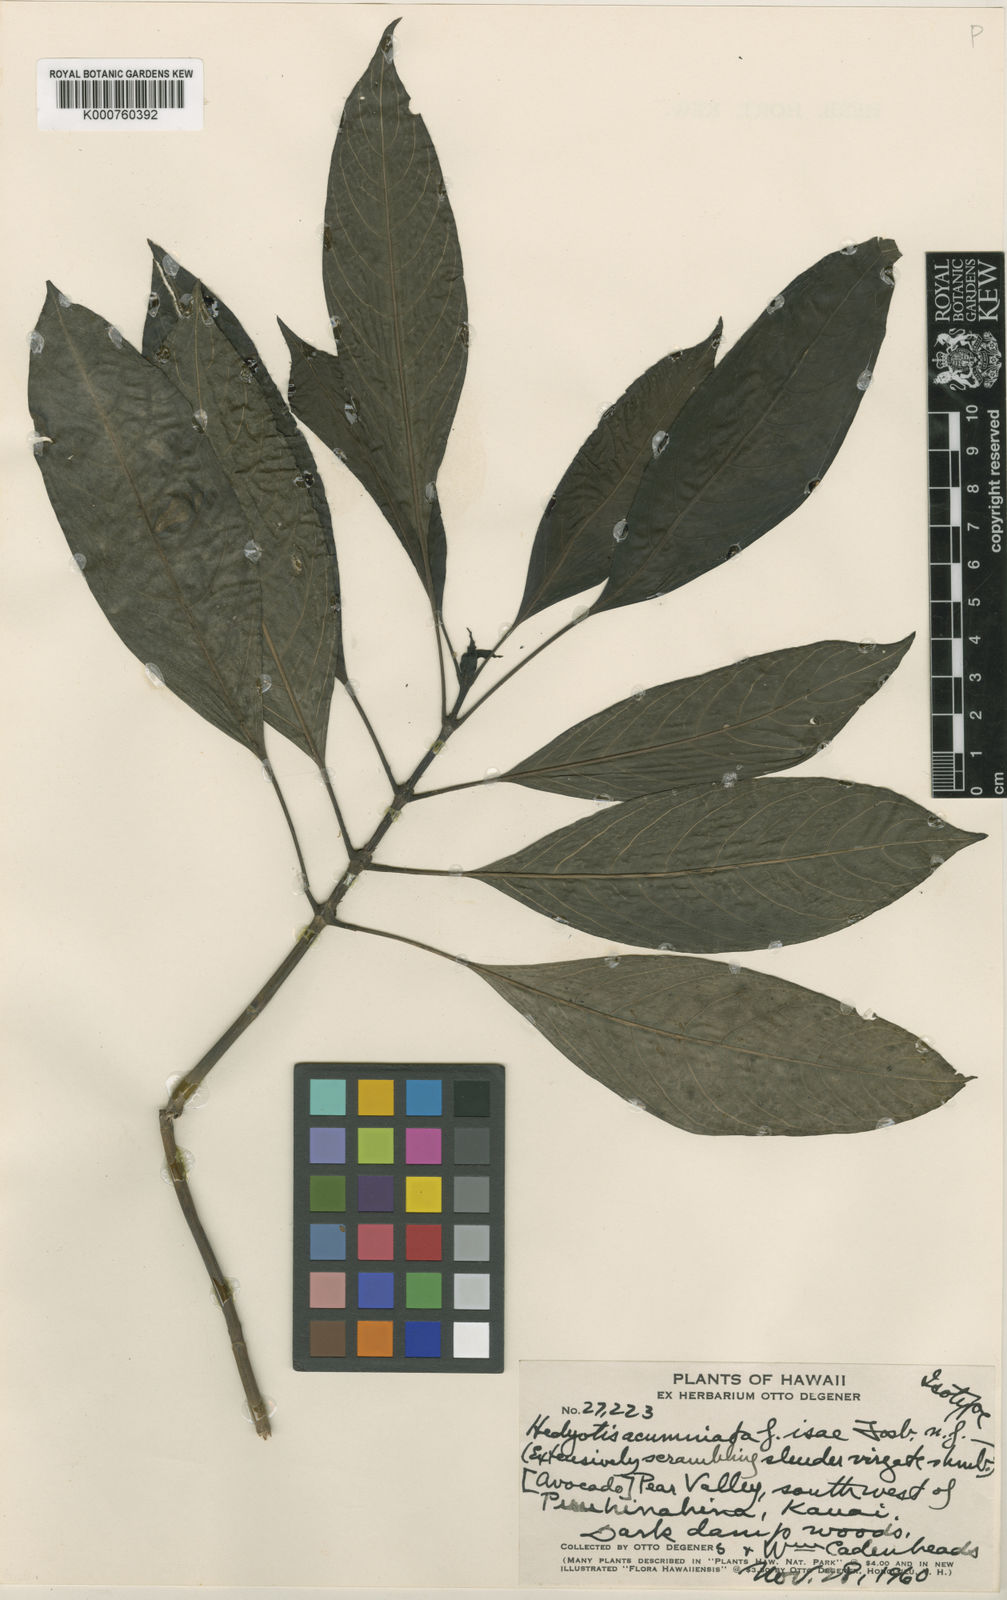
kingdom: Plantae
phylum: Tracheophyta
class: Magnoliopsida
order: Gentianales
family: Rubiaceae
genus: Kadua
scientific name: Kadua acuminata
